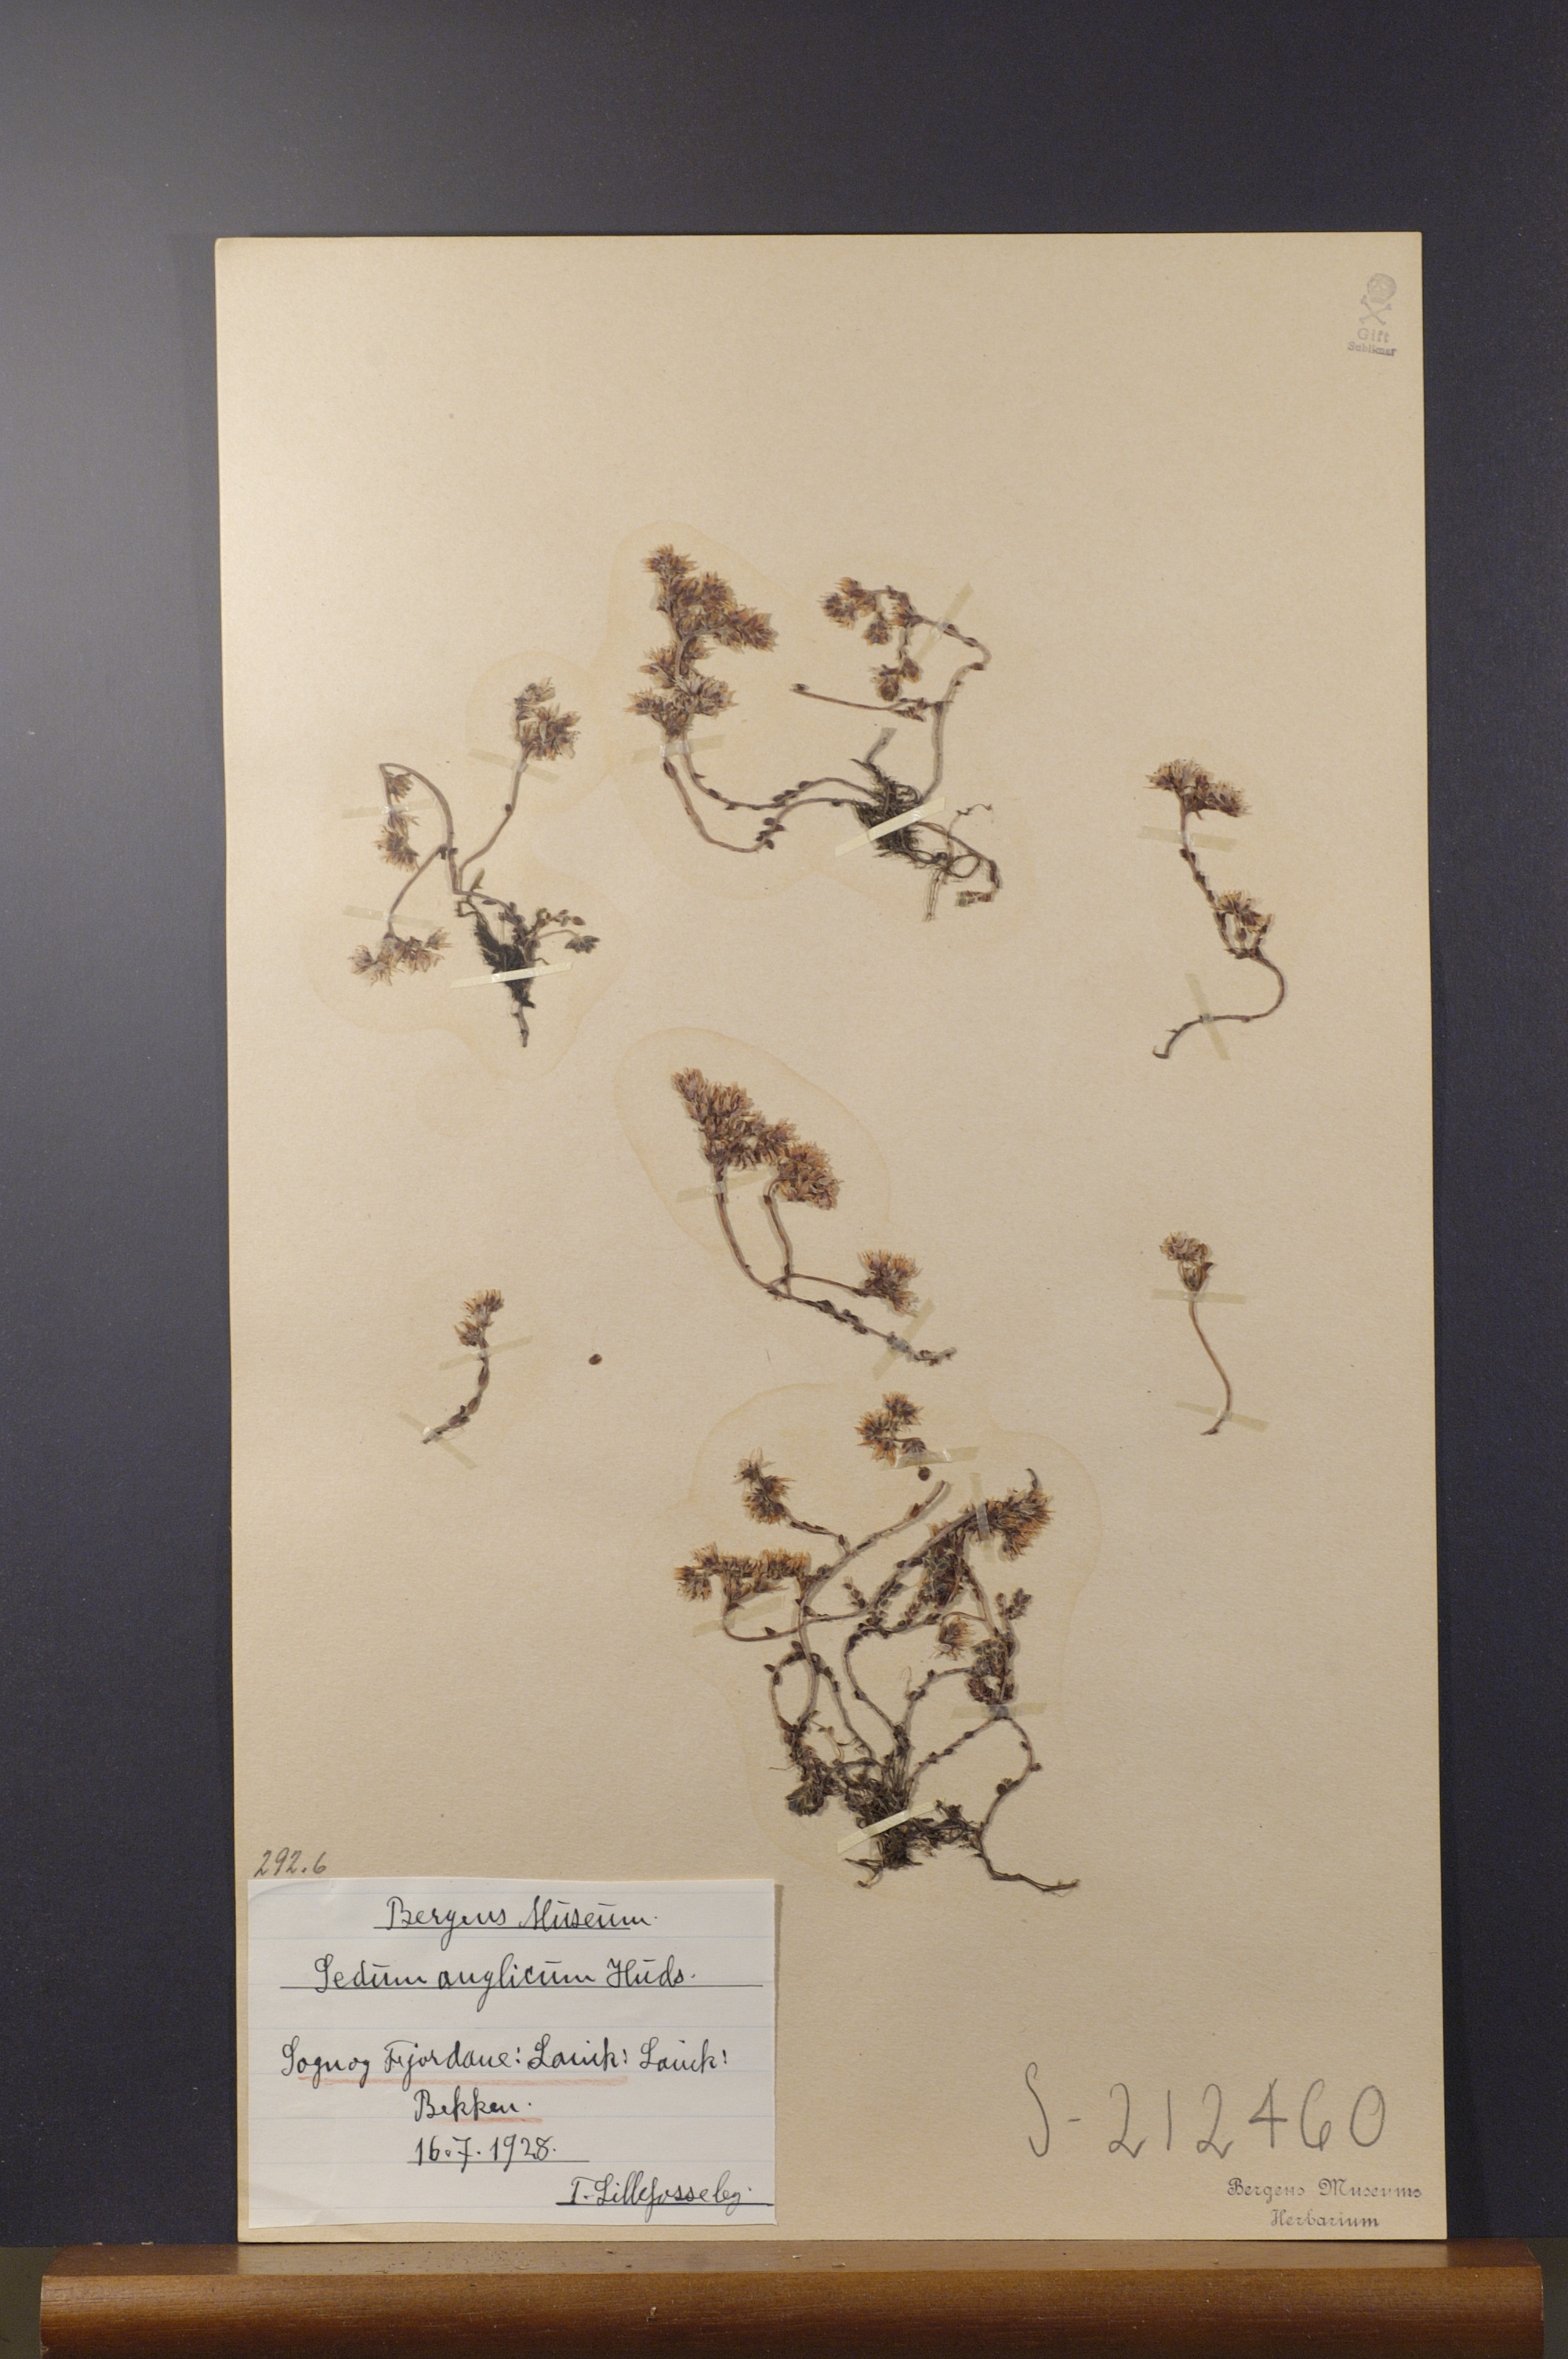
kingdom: Plantae
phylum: Tracheophyta
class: Magnoliopsida
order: Saxifragales
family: Crassulaceae
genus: Sedum
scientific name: Sedum anglicum
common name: English stonecrop
